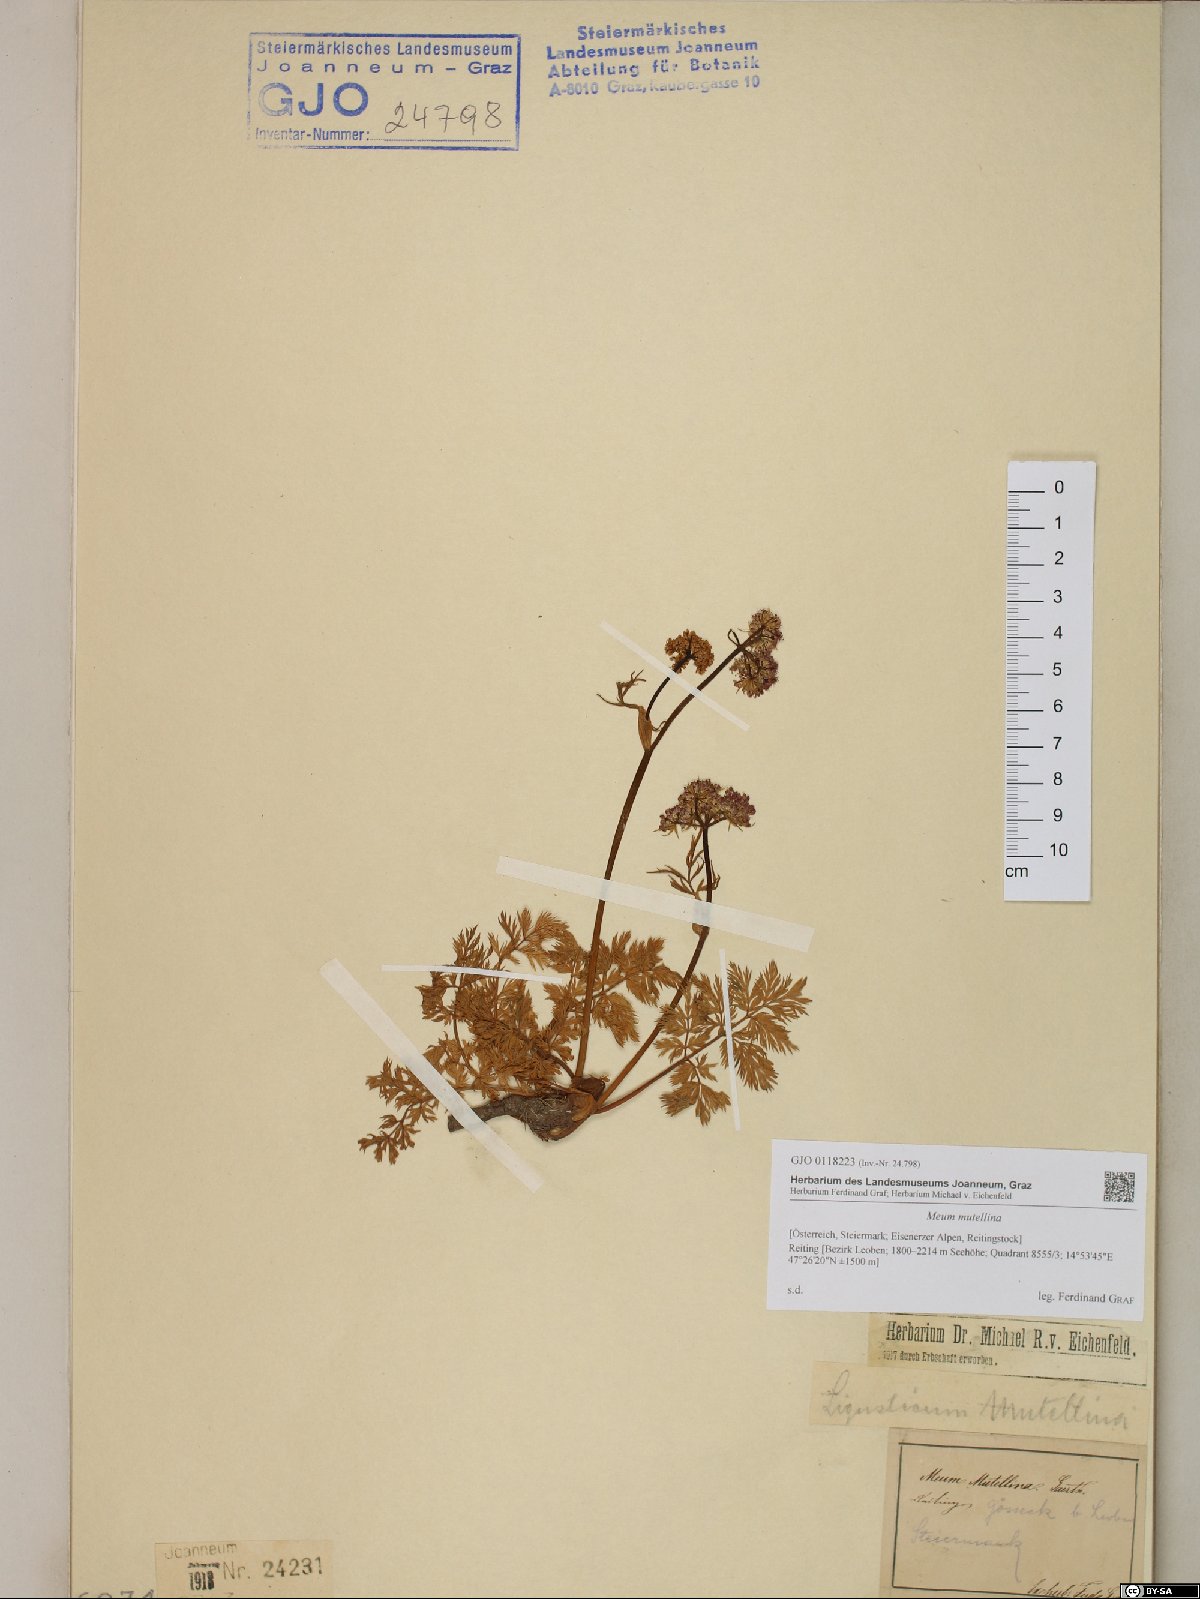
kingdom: Plantae
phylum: Tracheophyta
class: Magnoliopsida
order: Apiales
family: Apiaceae
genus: Mutellina
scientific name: Mutellina adonidifolia
